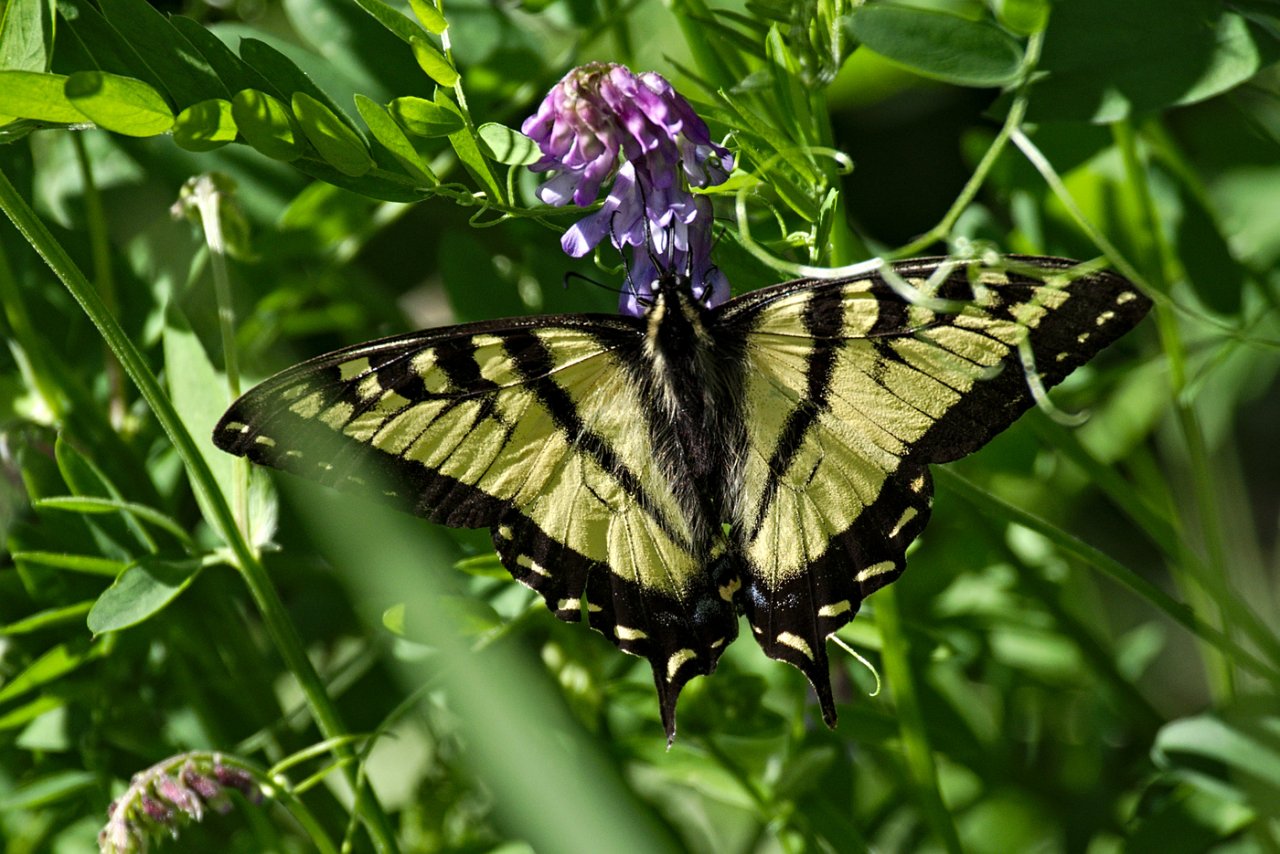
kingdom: Animalia
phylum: Arthropoda
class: Insecta
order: Lepidoptera
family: Papilionidae
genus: Pterourus
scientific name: Pterourus canadensis
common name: Canadian Tiger Swallowtail
